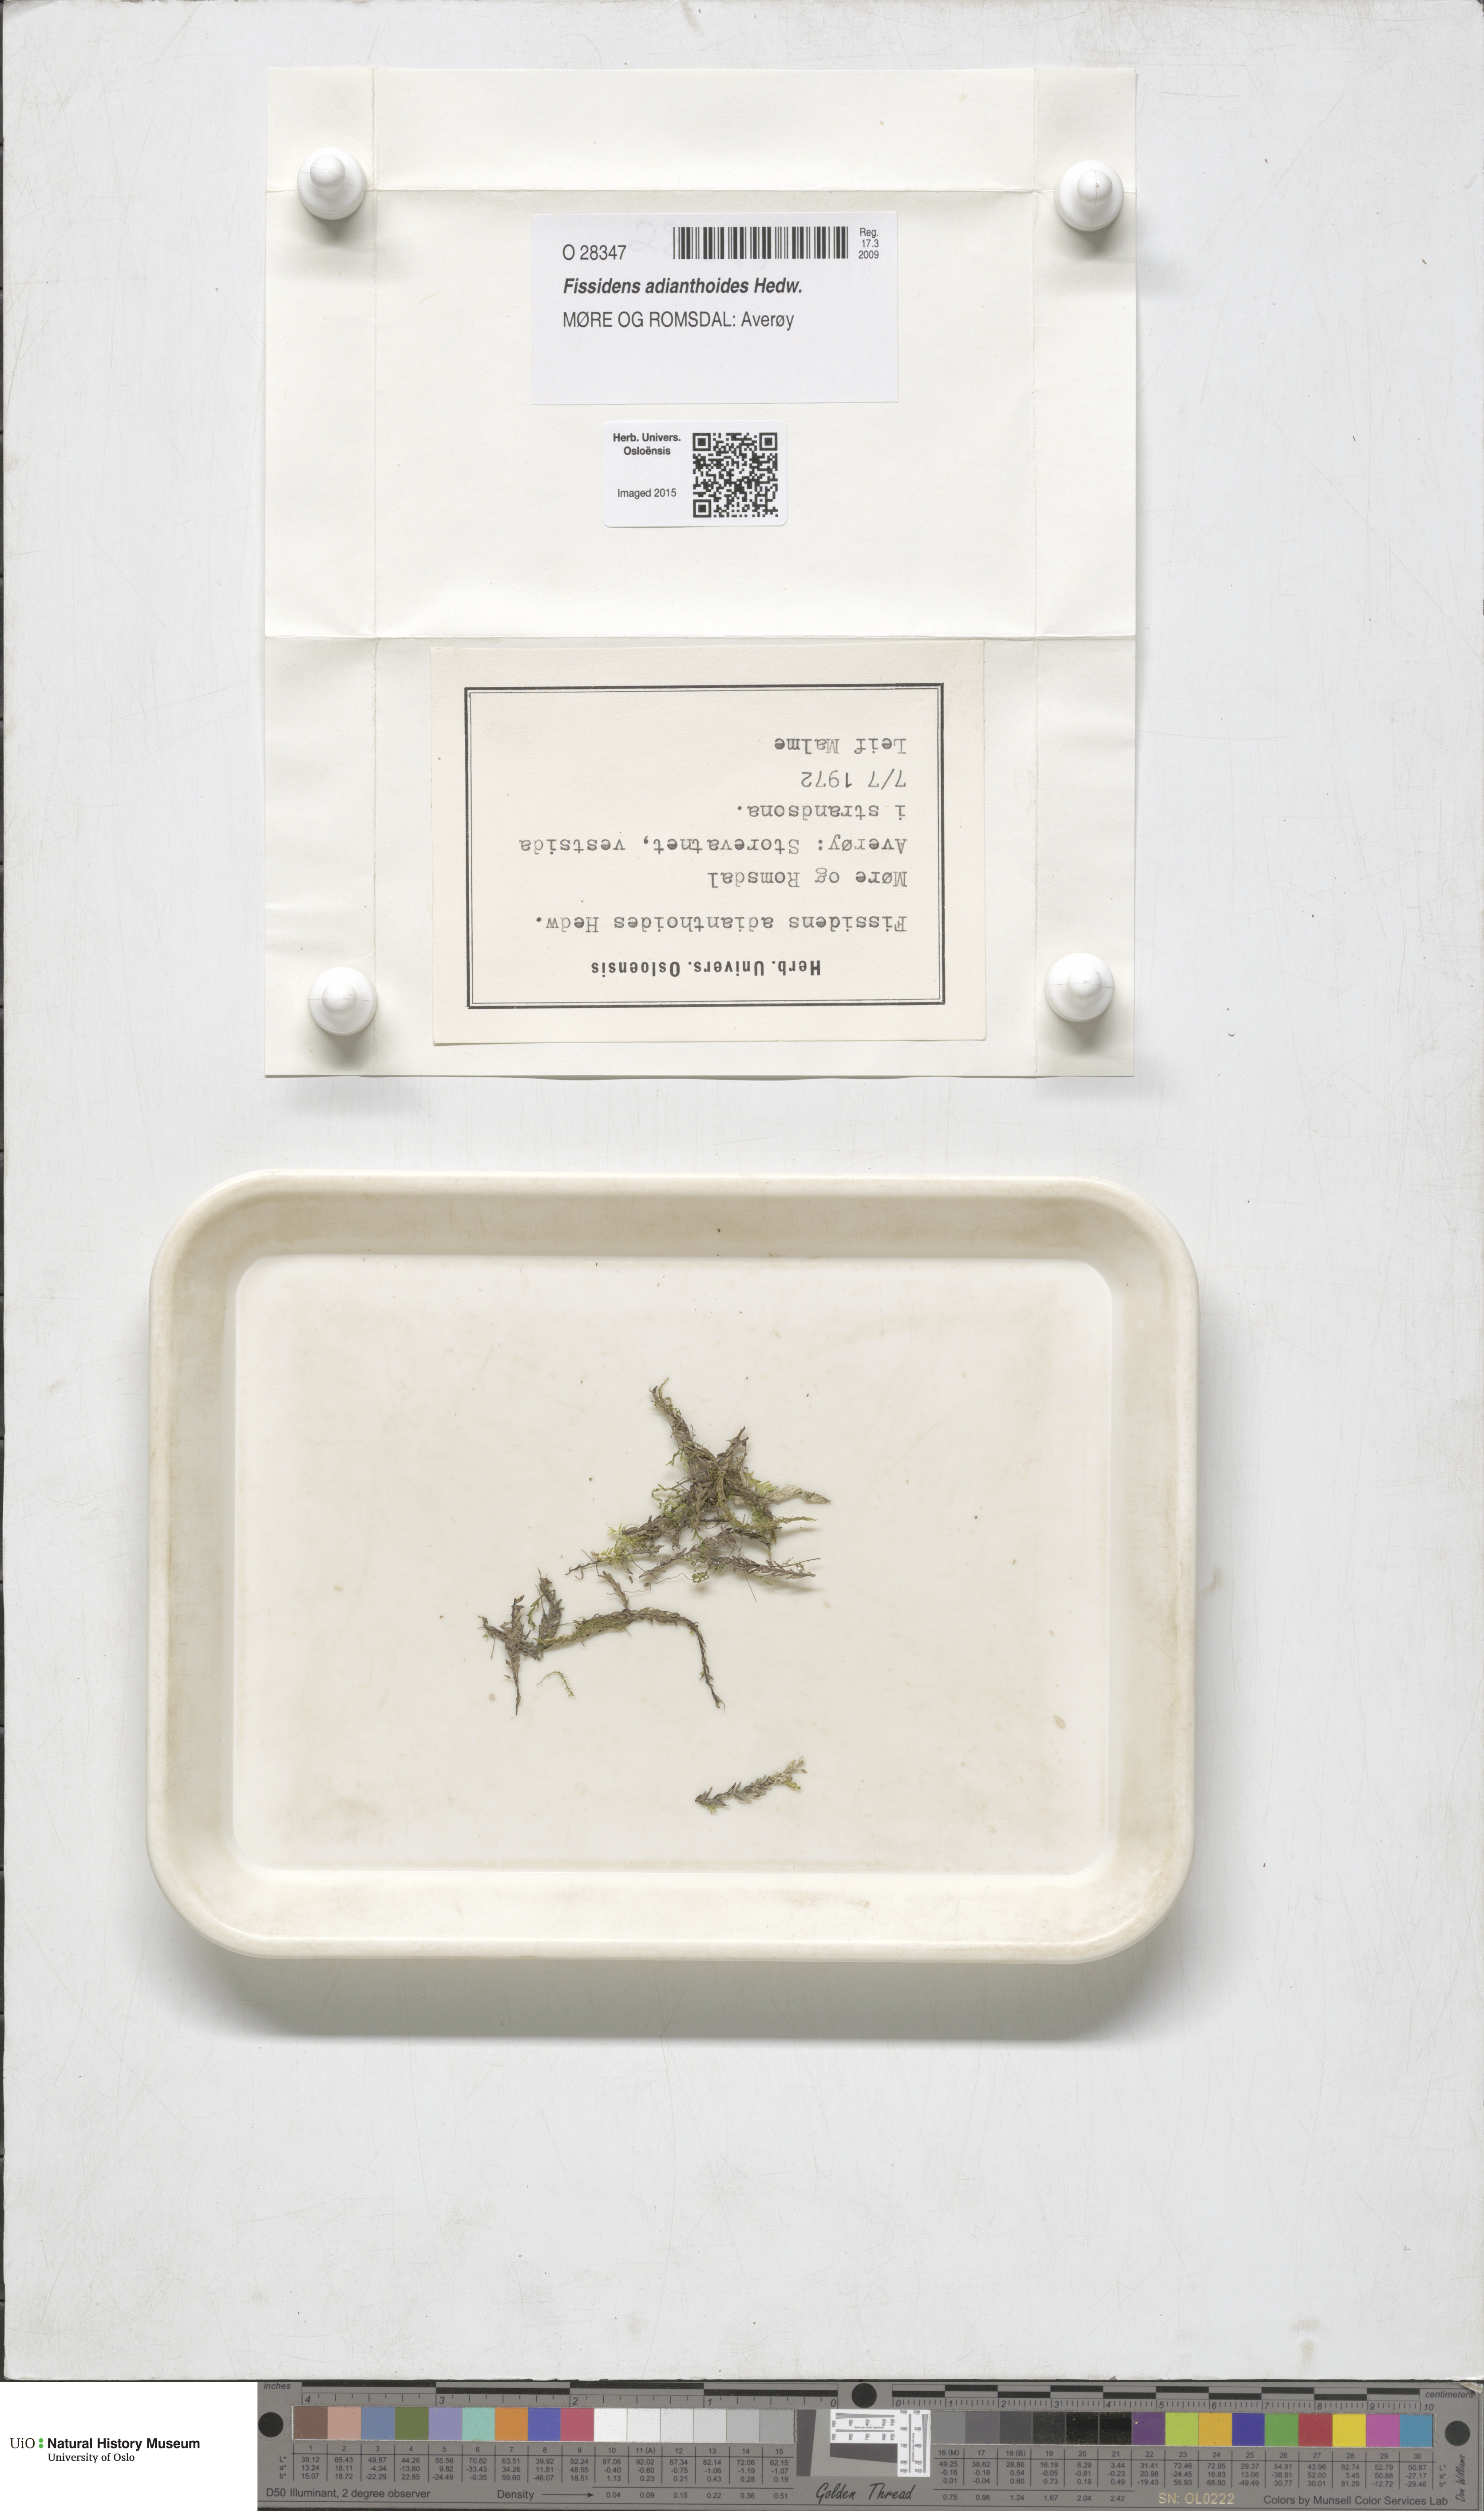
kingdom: Plantae
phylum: Bryophyta
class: Bryopsida
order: Dicranales
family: Fissidentaceae
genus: Fissidens
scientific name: Fissidens adianthoides
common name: Maidenhair pocket moss
